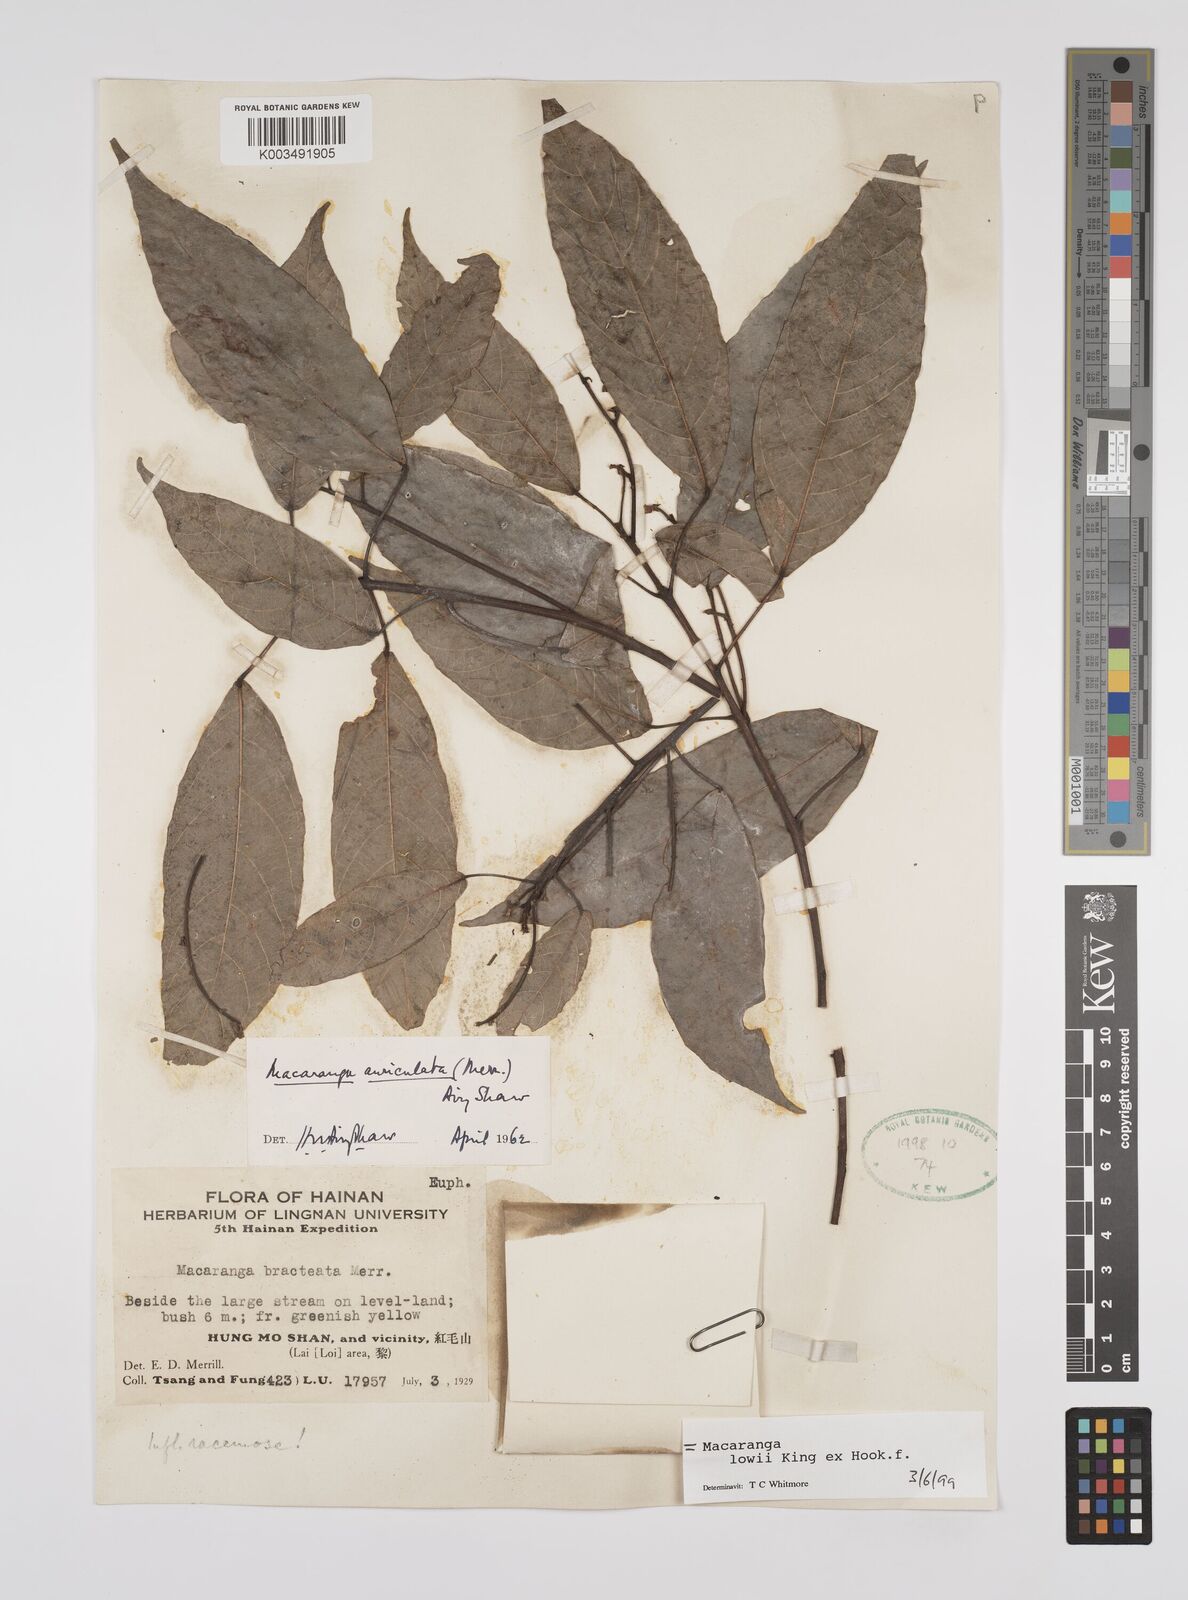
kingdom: Plantae
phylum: Tracheophyta
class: Magnoliopsida
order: Malpighiales
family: Euphorbiaceae
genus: Macaranga
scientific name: Macaranga lowii
